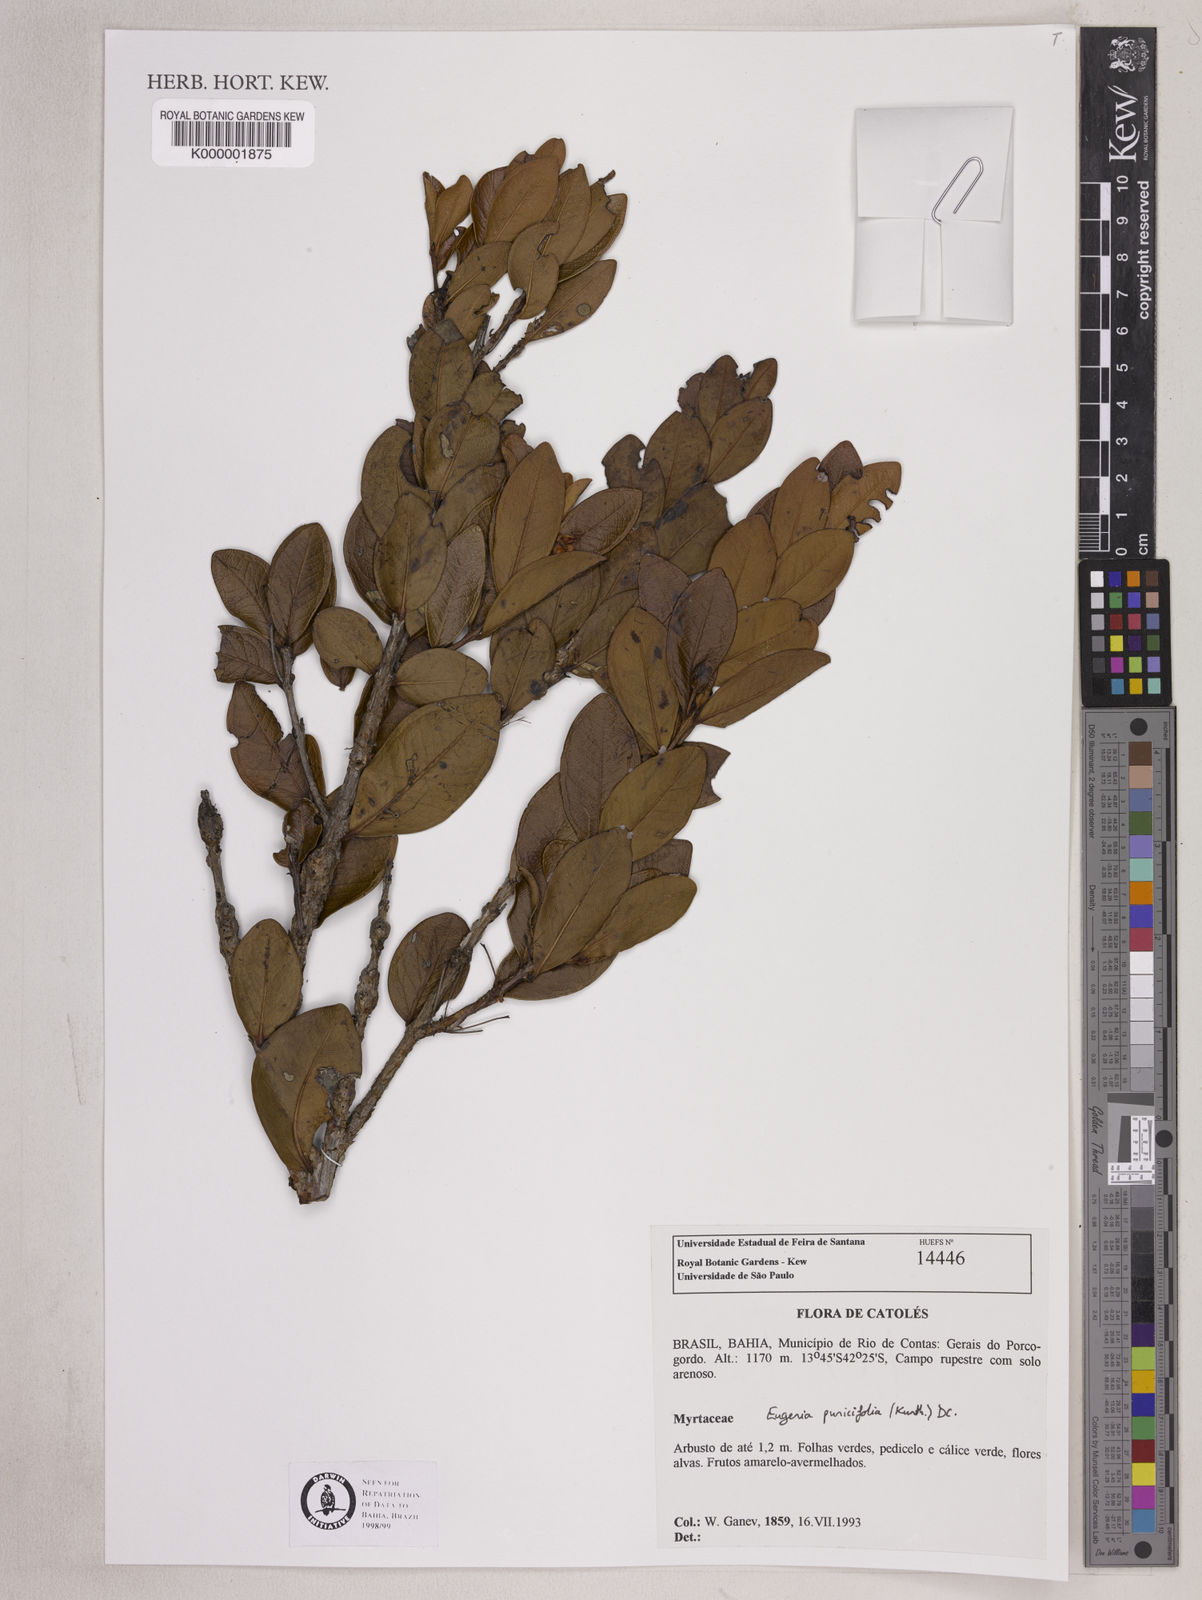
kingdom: Plantae
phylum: Tracheophyta
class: Magnoliopsida
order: Myrtales
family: Myrtaceae
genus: Eugenia
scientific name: Eugenia punicifolia
